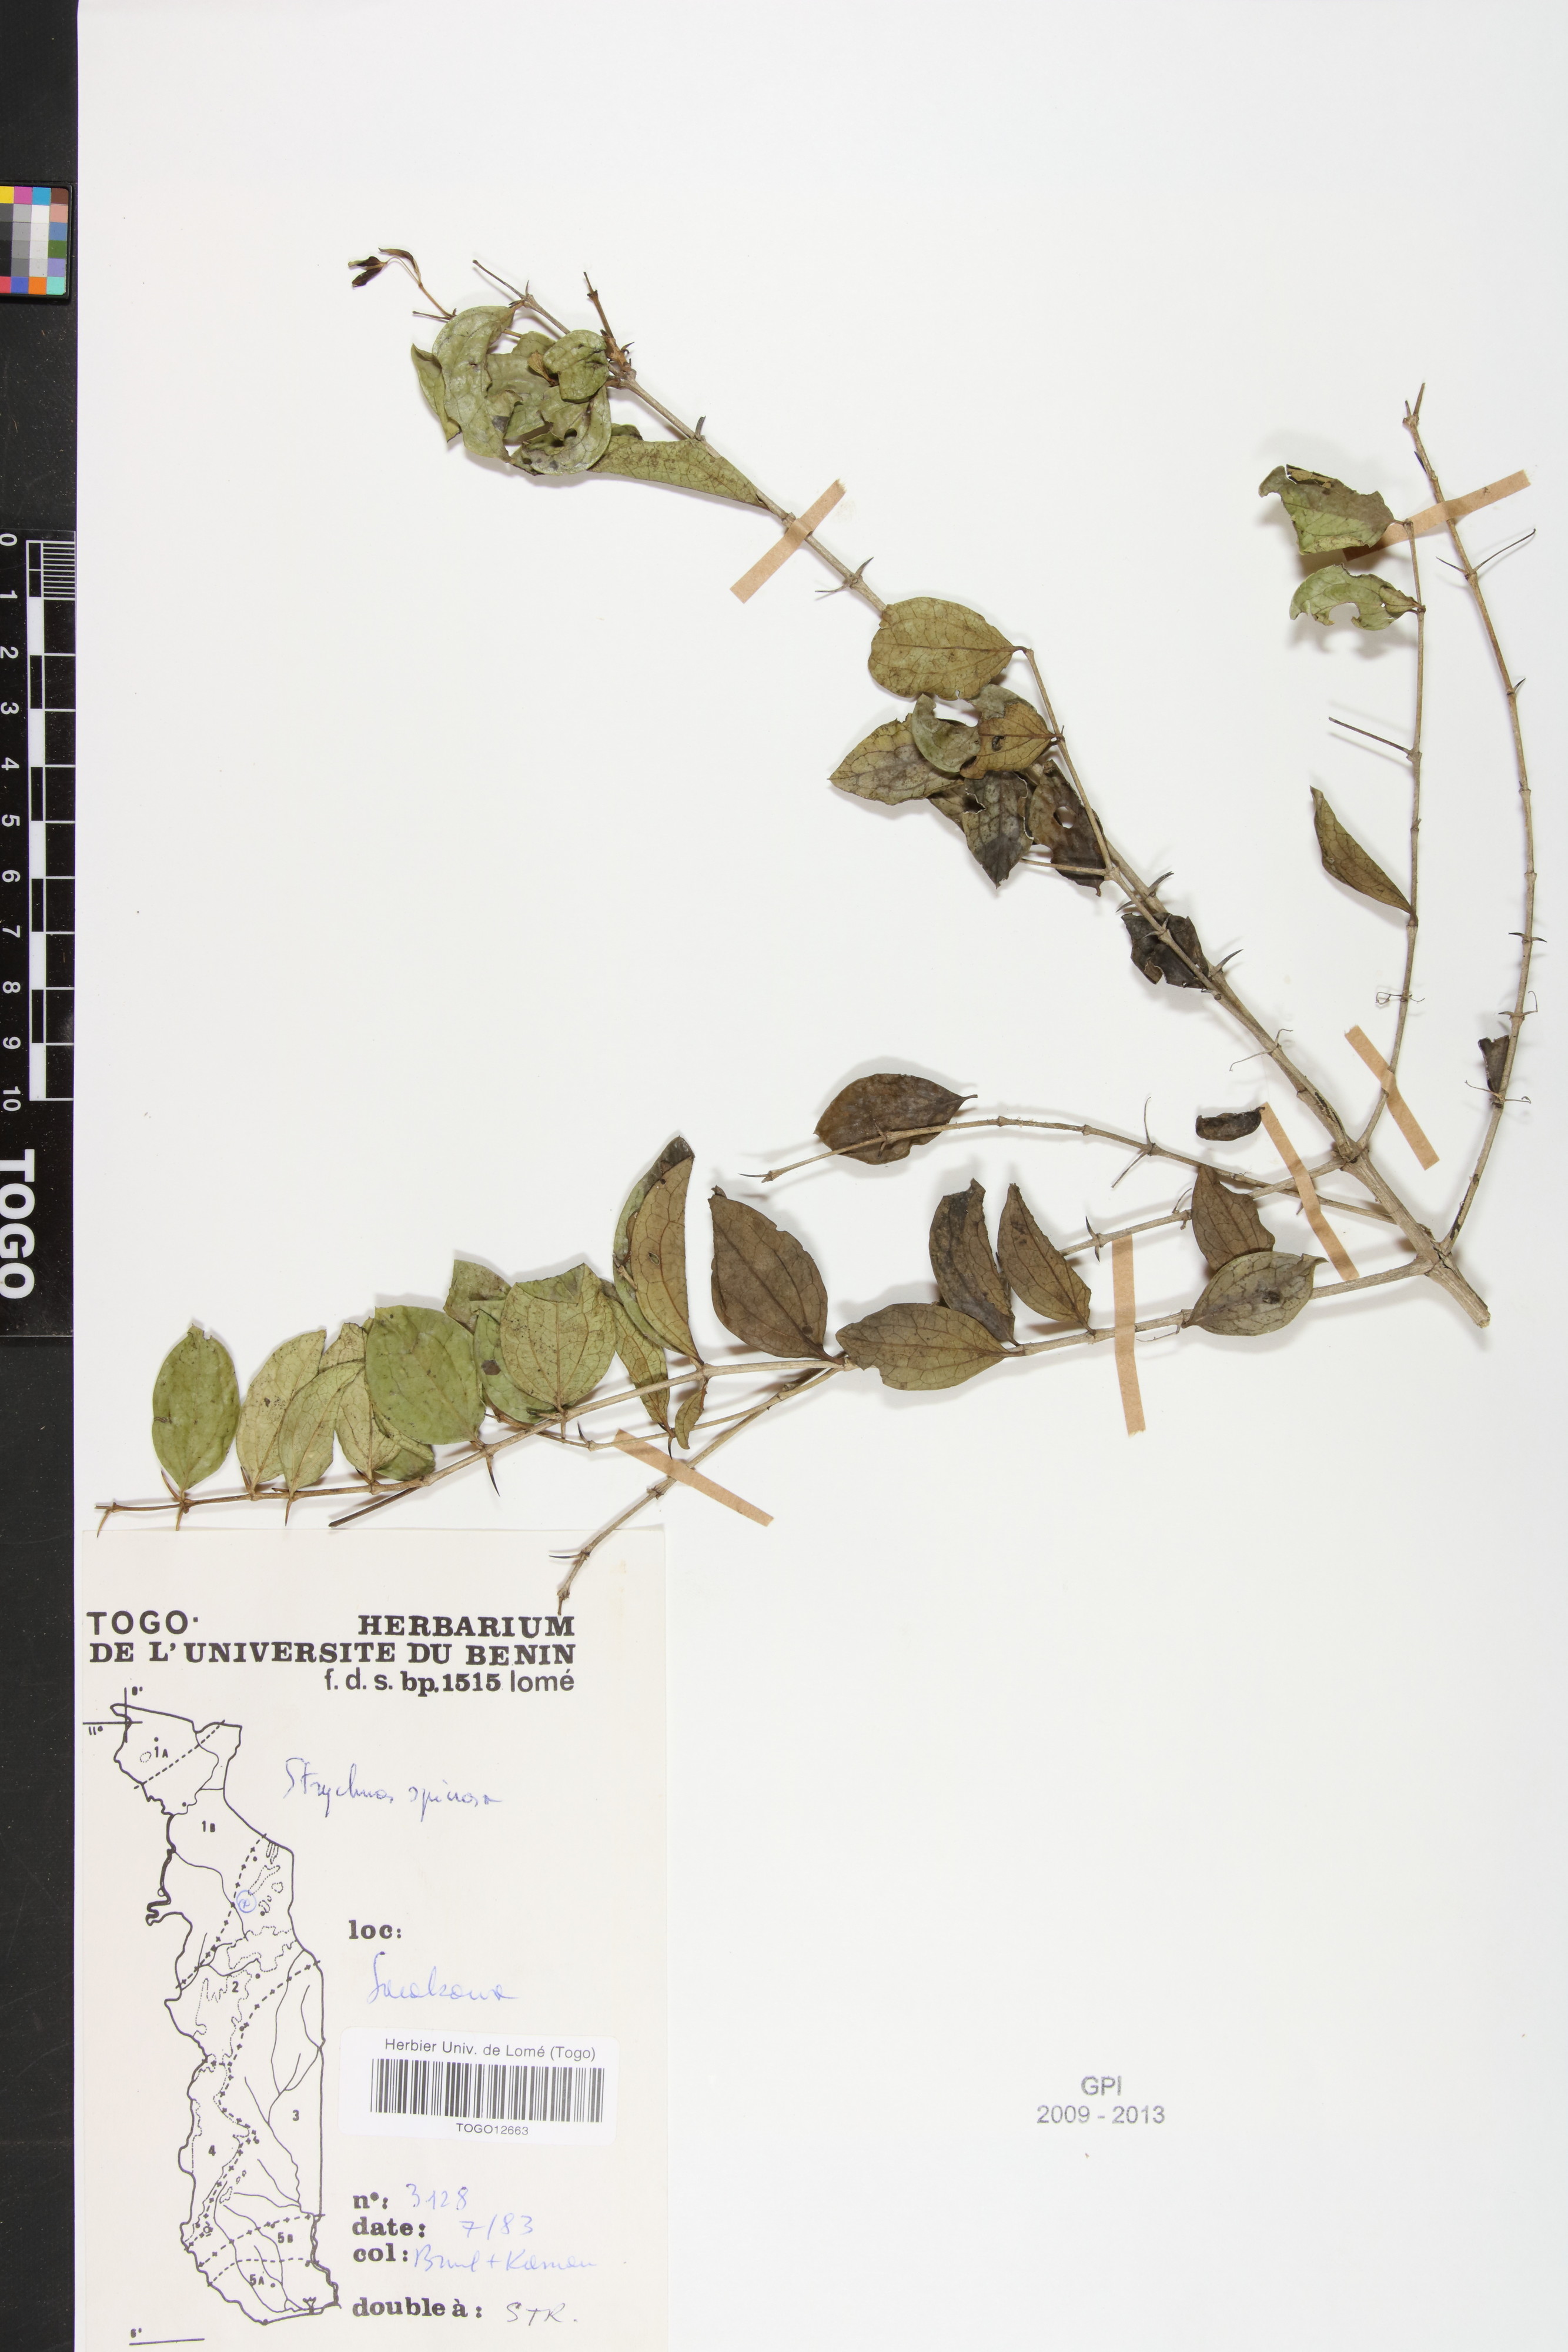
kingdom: Plantae
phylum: Tracheophyta
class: Magnoliopsida
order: Gentianales
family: Loganiaceae
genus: Strychnos
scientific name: Strychnos spinosa
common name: Natal orange
